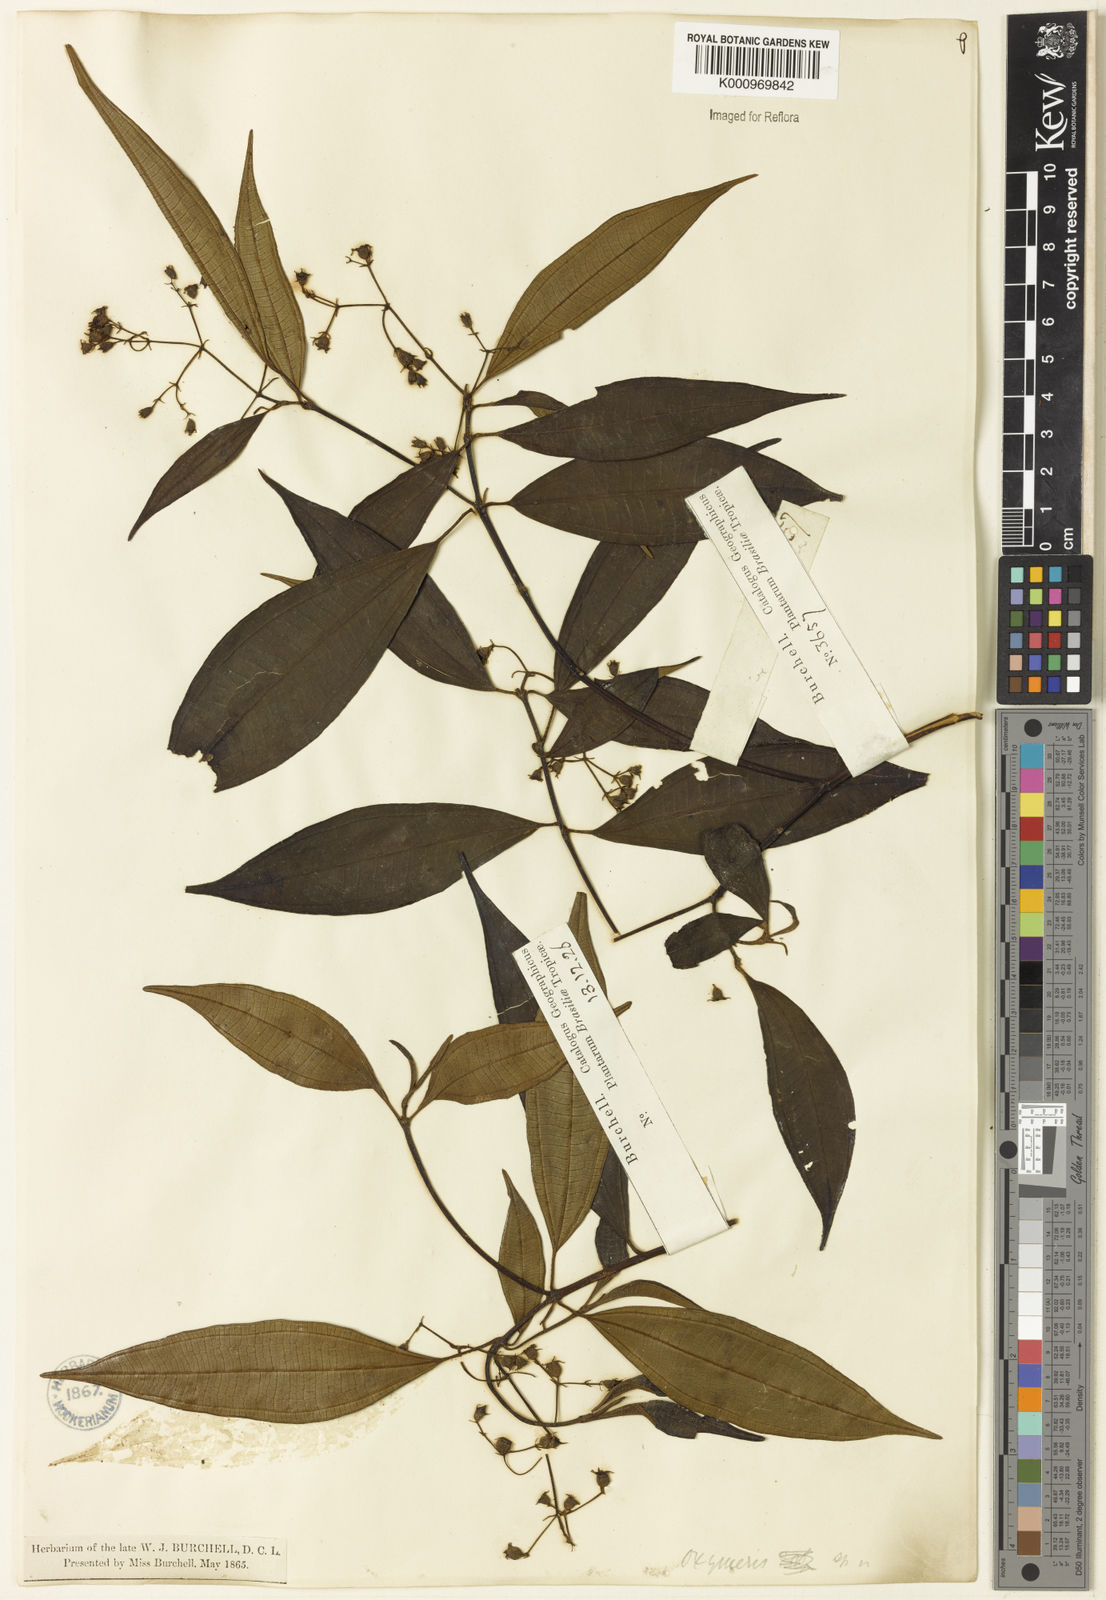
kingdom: Plantae
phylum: Tracheophyta
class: Magnoliopsida
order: Myrtales
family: Melastomataceae
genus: Miconia
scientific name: Miconia
